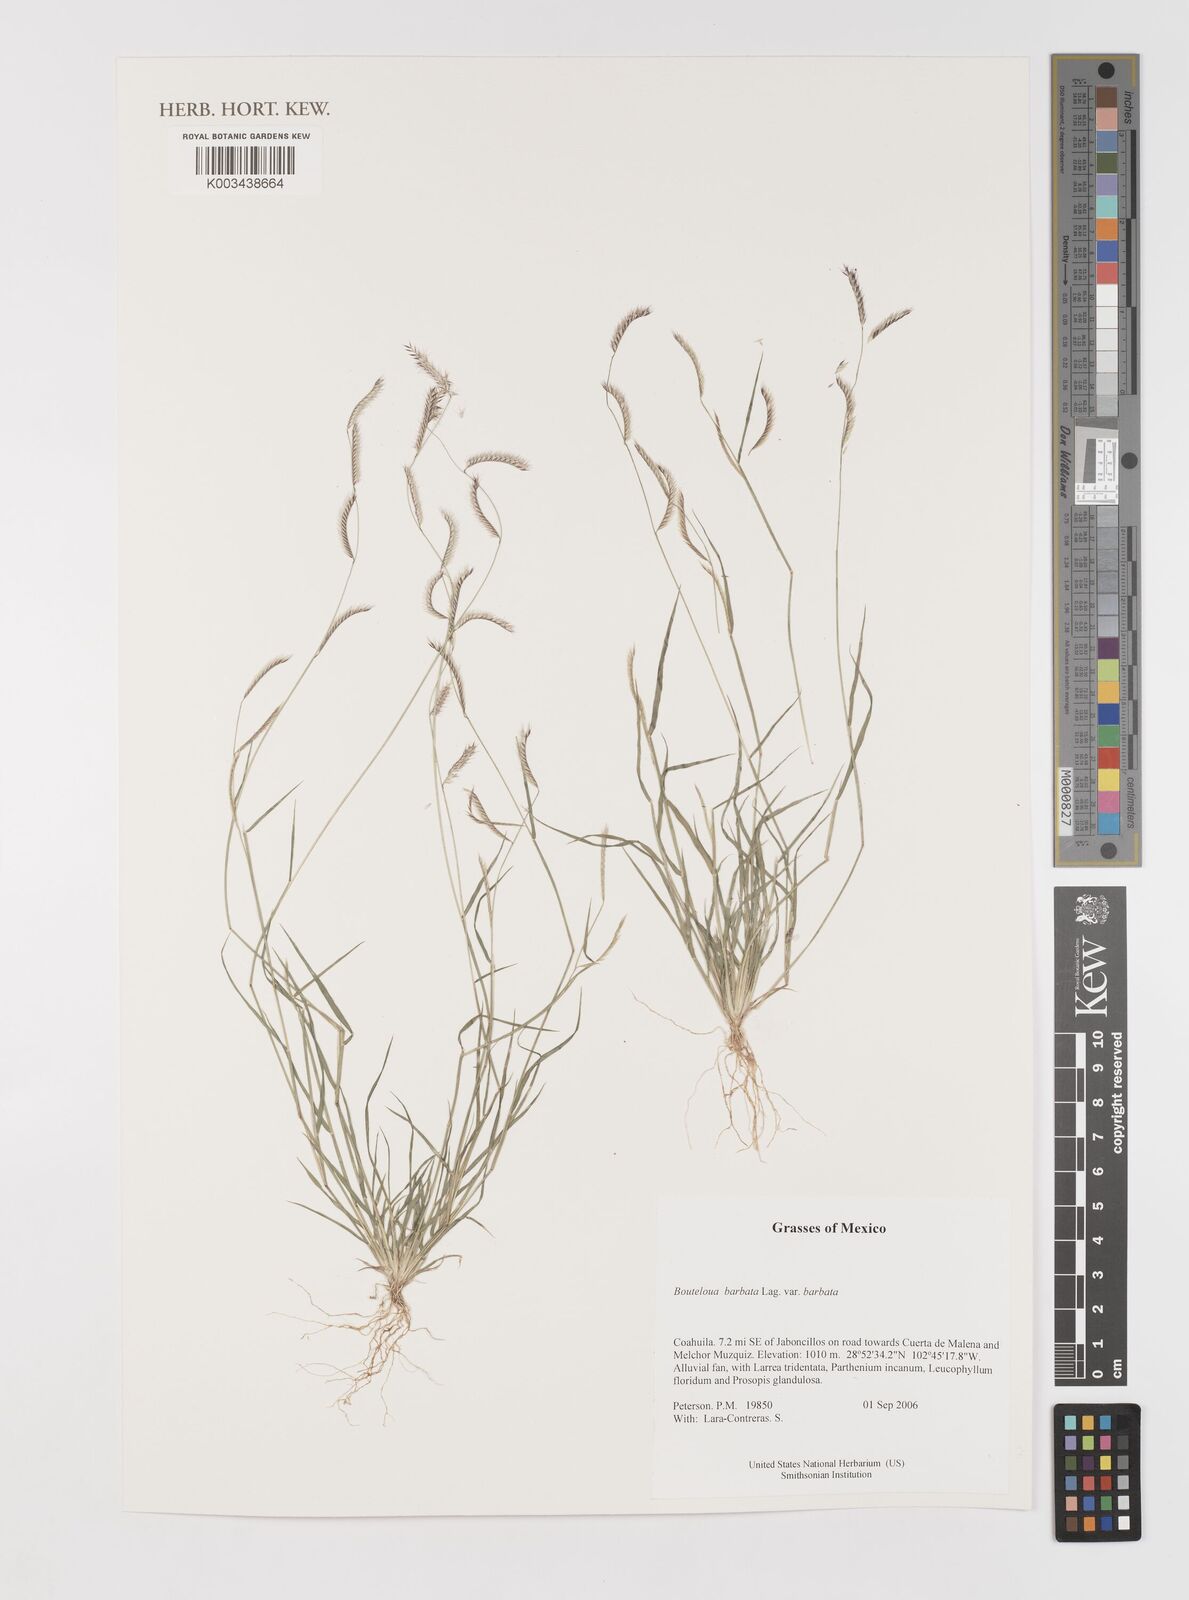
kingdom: Plantae
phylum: Tracheophyta
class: Liliopsida
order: Poales
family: Poaceae
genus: Bouteloua
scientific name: Bouteloua
